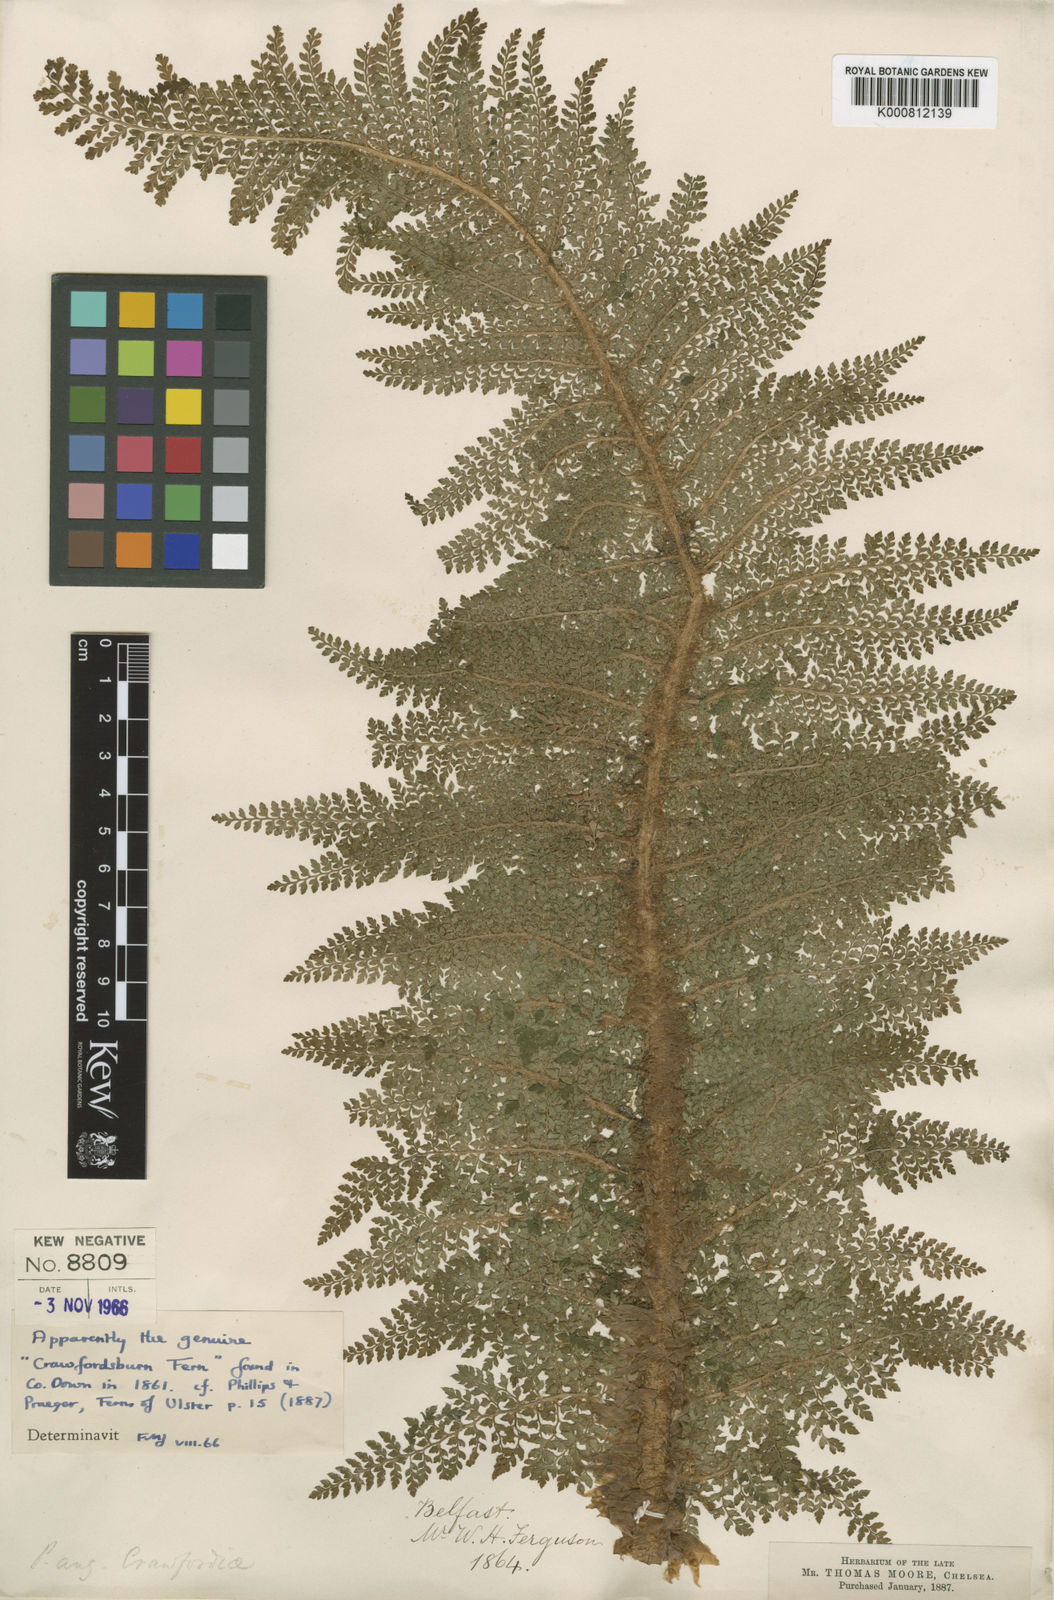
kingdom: Plantae
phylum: Tracheophyta
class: Polypodiopsida
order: Polypodiales
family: Dryopteridaceae
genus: Polystichum
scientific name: Polystichum setiferum
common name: Soft shield-fern
